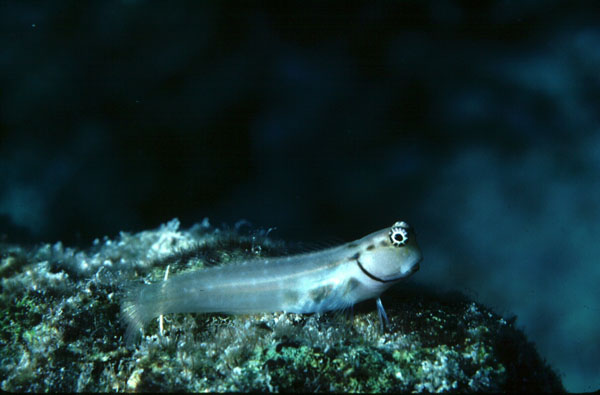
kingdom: Animalia
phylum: Chordata
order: Perciformes
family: Blenniidae
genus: Ecsenius
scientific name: Ecsenius minutus
